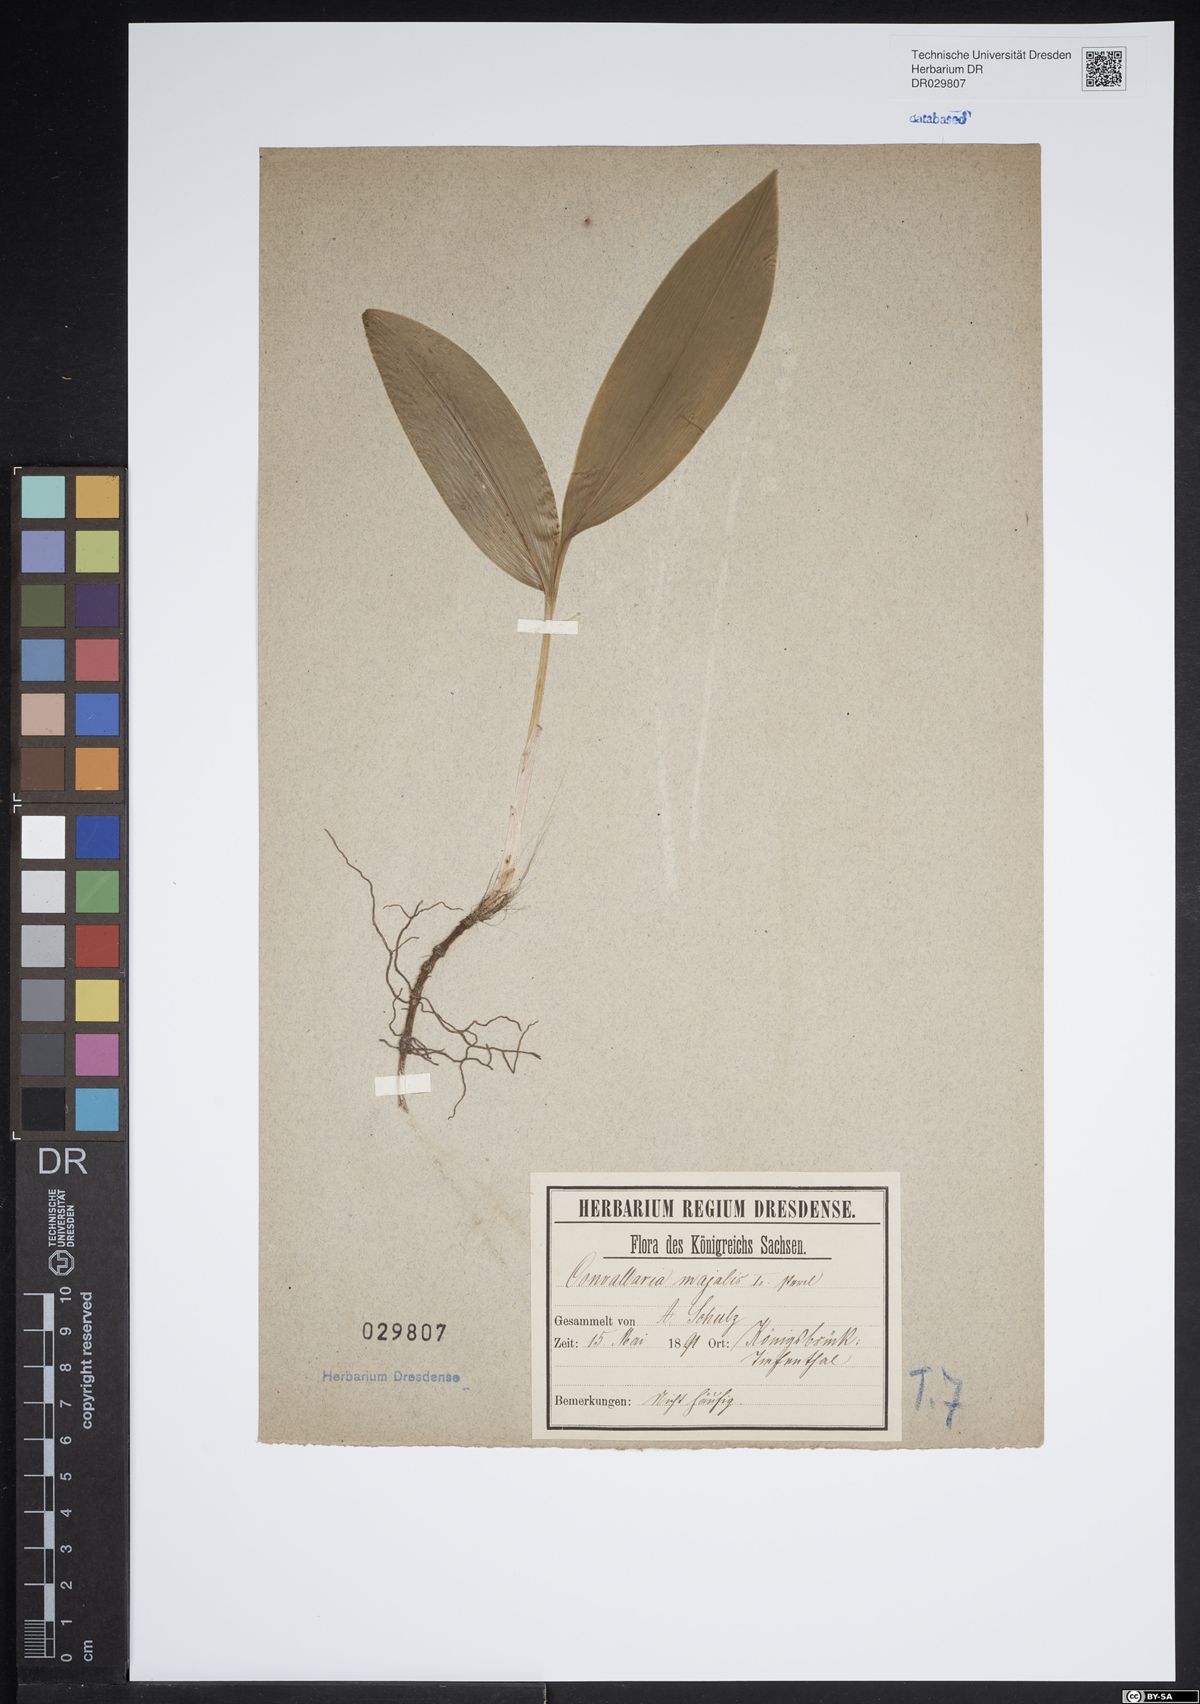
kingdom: Plantae
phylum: Tracheophyta
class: Liliopsida
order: Asparagales
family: Asparagaceae
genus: Convallaria
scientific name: Convallaria majalis
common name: Lily-of-the-valley
